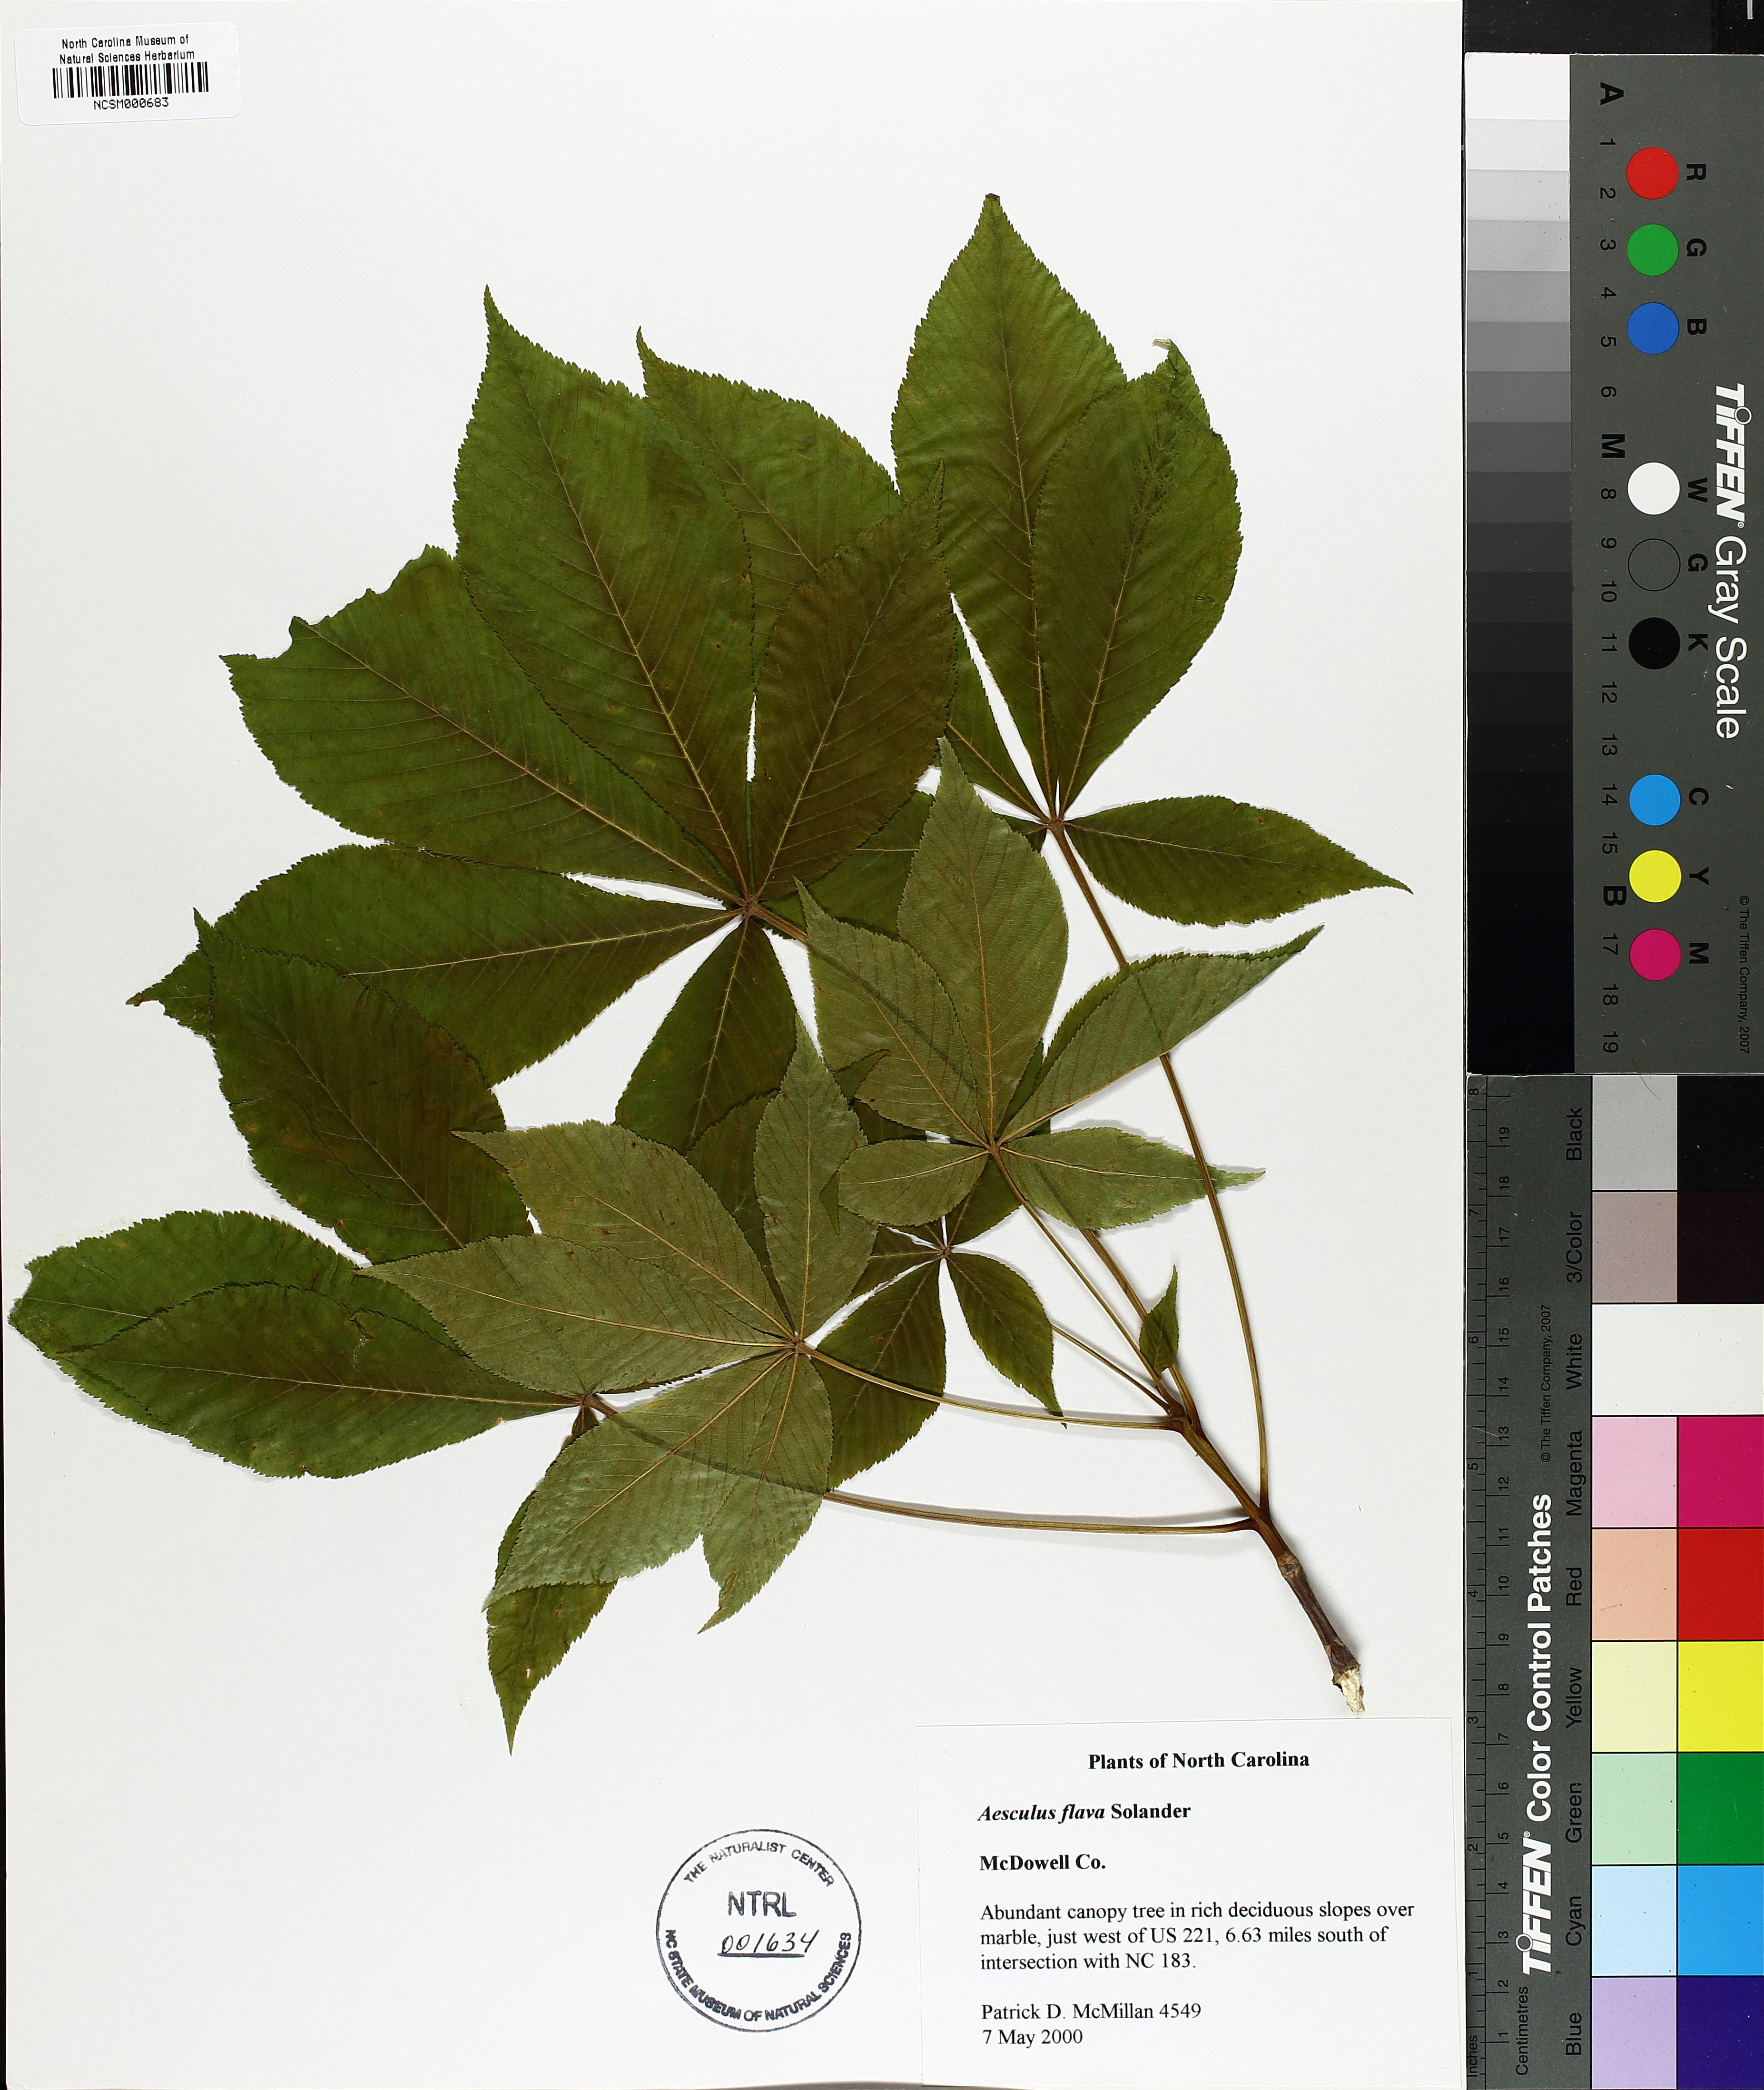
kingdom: Plantae
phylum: Tracheophyta
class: Magnoliopsida
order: Sapindales
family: Sapindaceae
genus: Aesculus
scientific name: Aesculus flava
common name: Yellow buckeye
